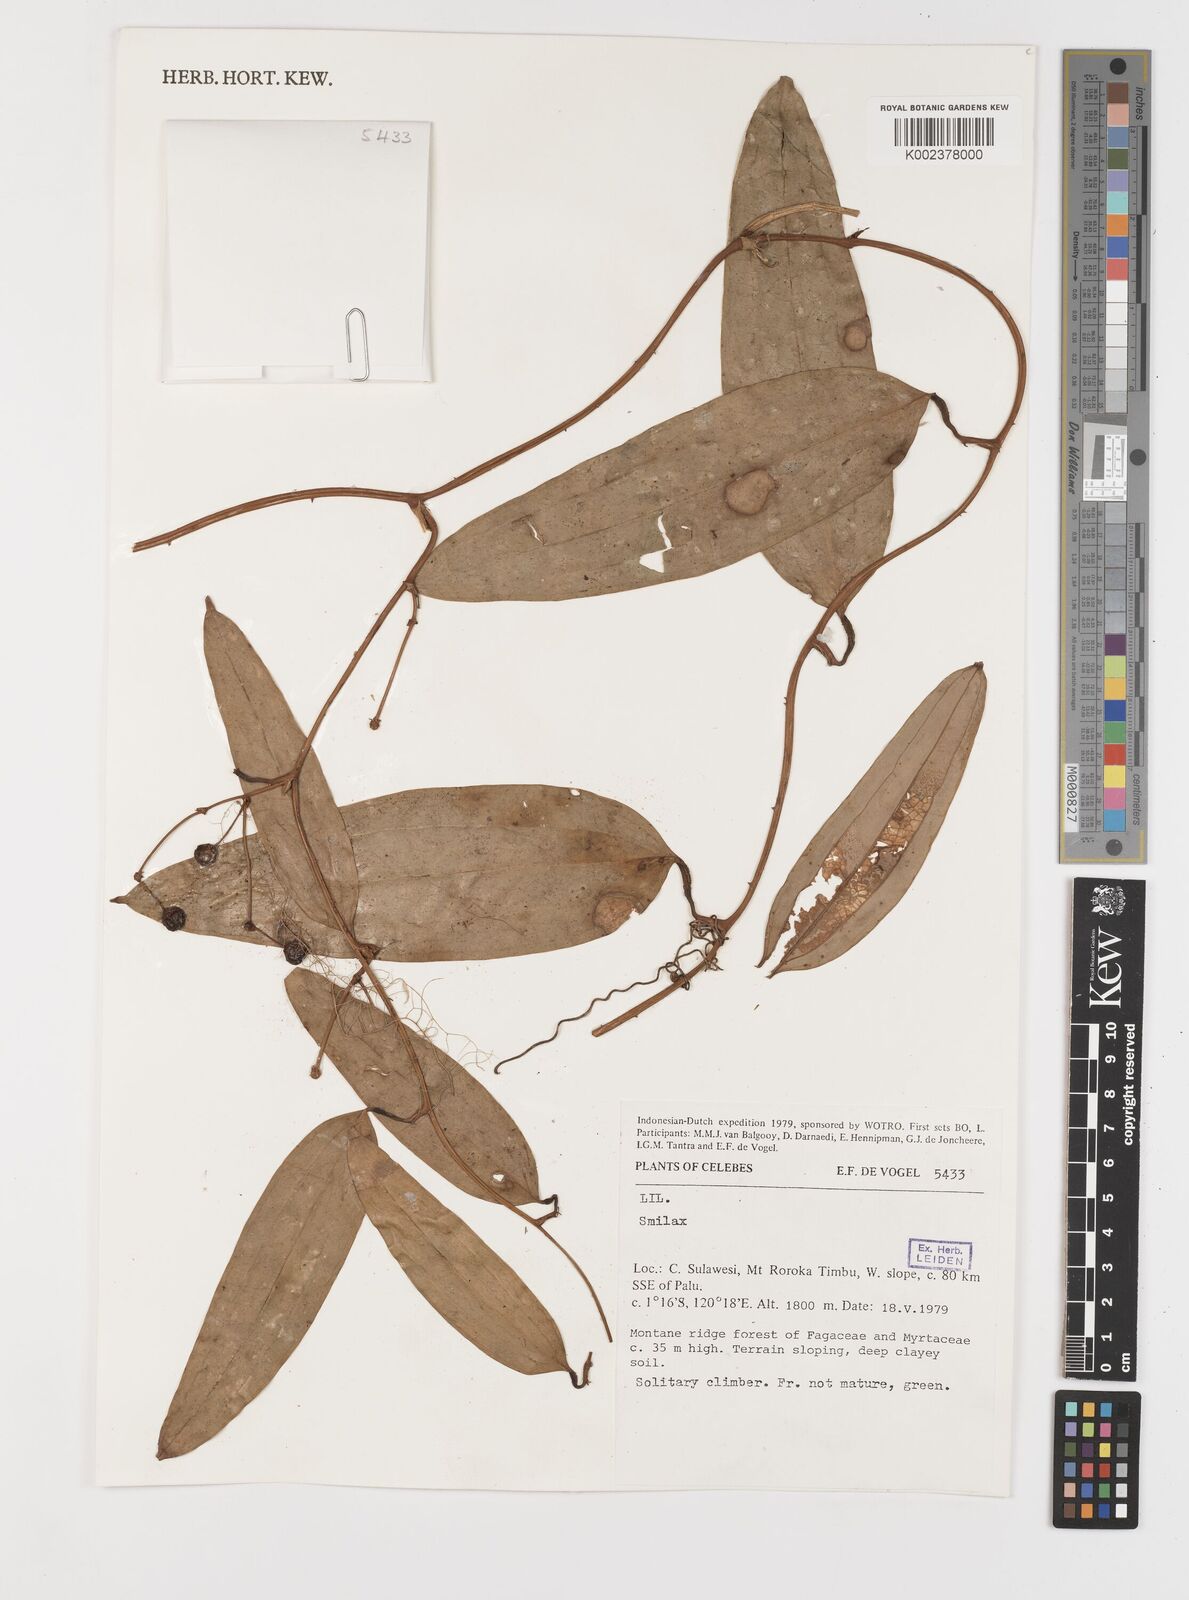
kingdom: Plantae
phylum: Tracheophyta
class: Liliopsida
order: Liliales
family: Smilacaceae
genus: Smilax
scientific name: Smilax
